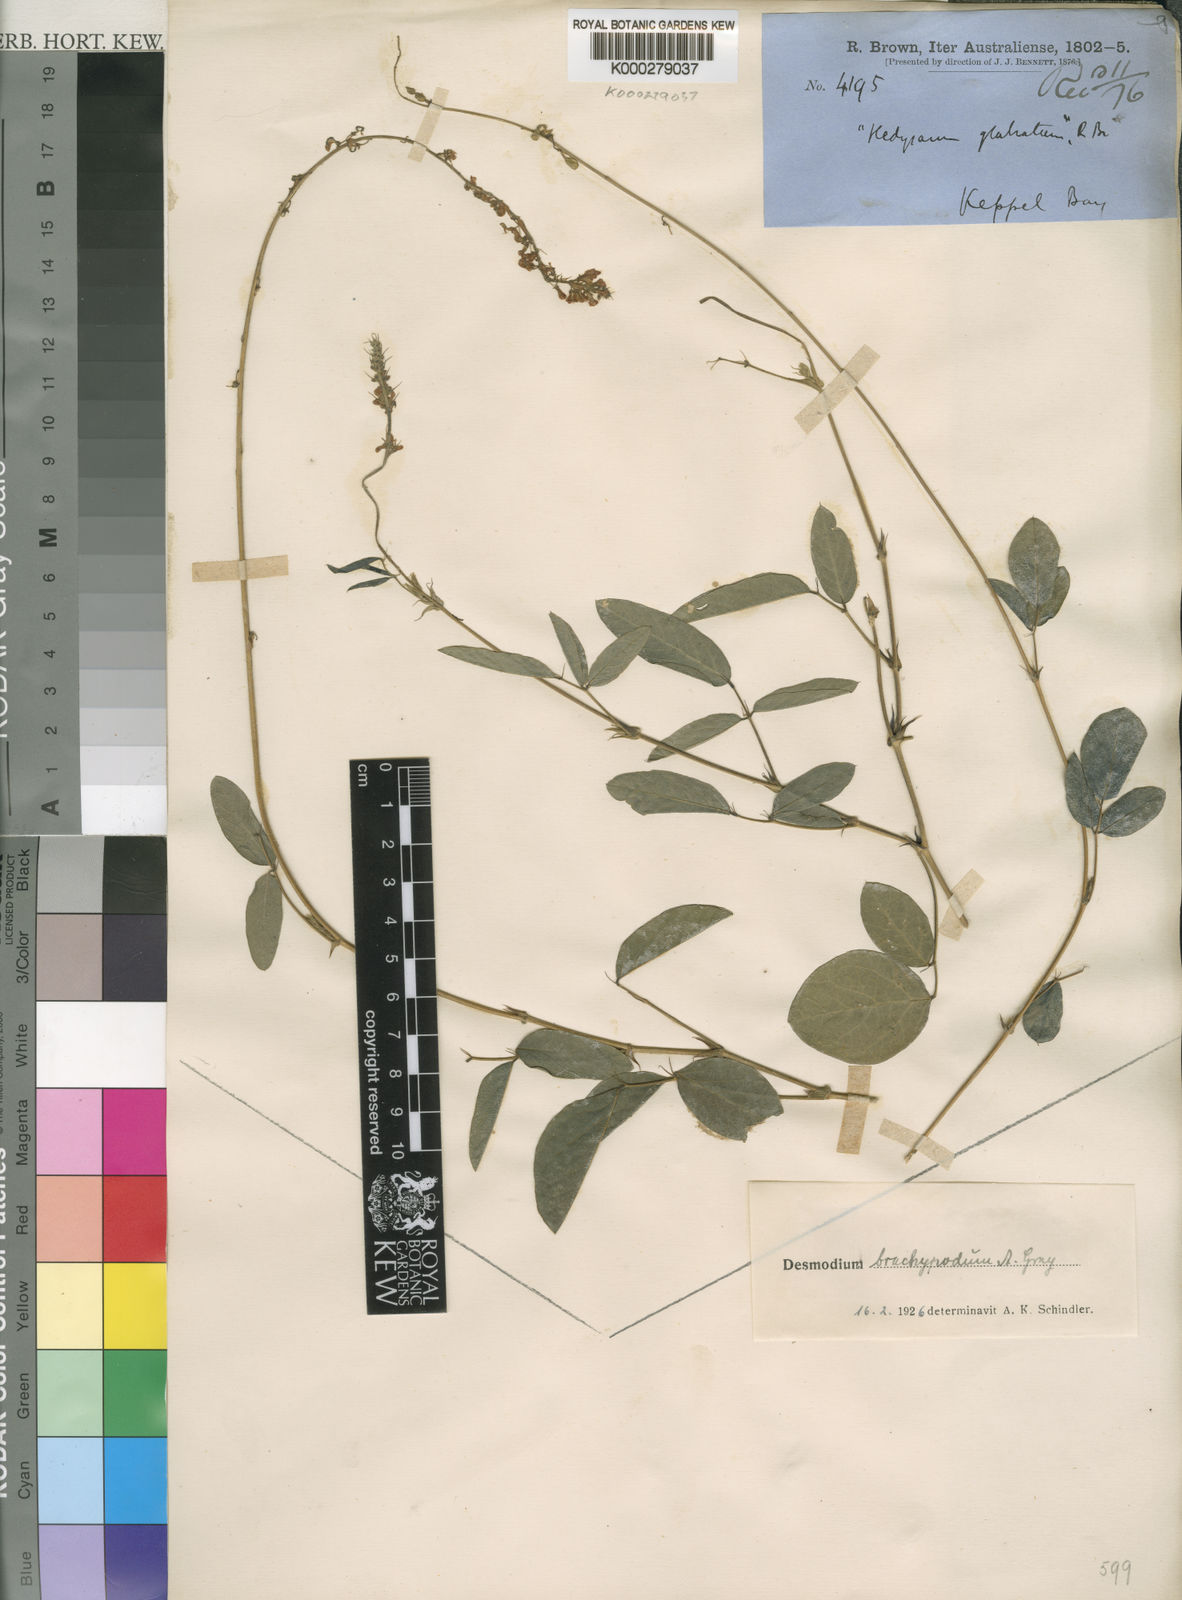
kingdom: Plantae
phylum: Tracheophyta
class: Magnoliopsida
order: Fabales
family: Fabaceae
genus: Oxytes
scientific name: Oxytes brachypoda
